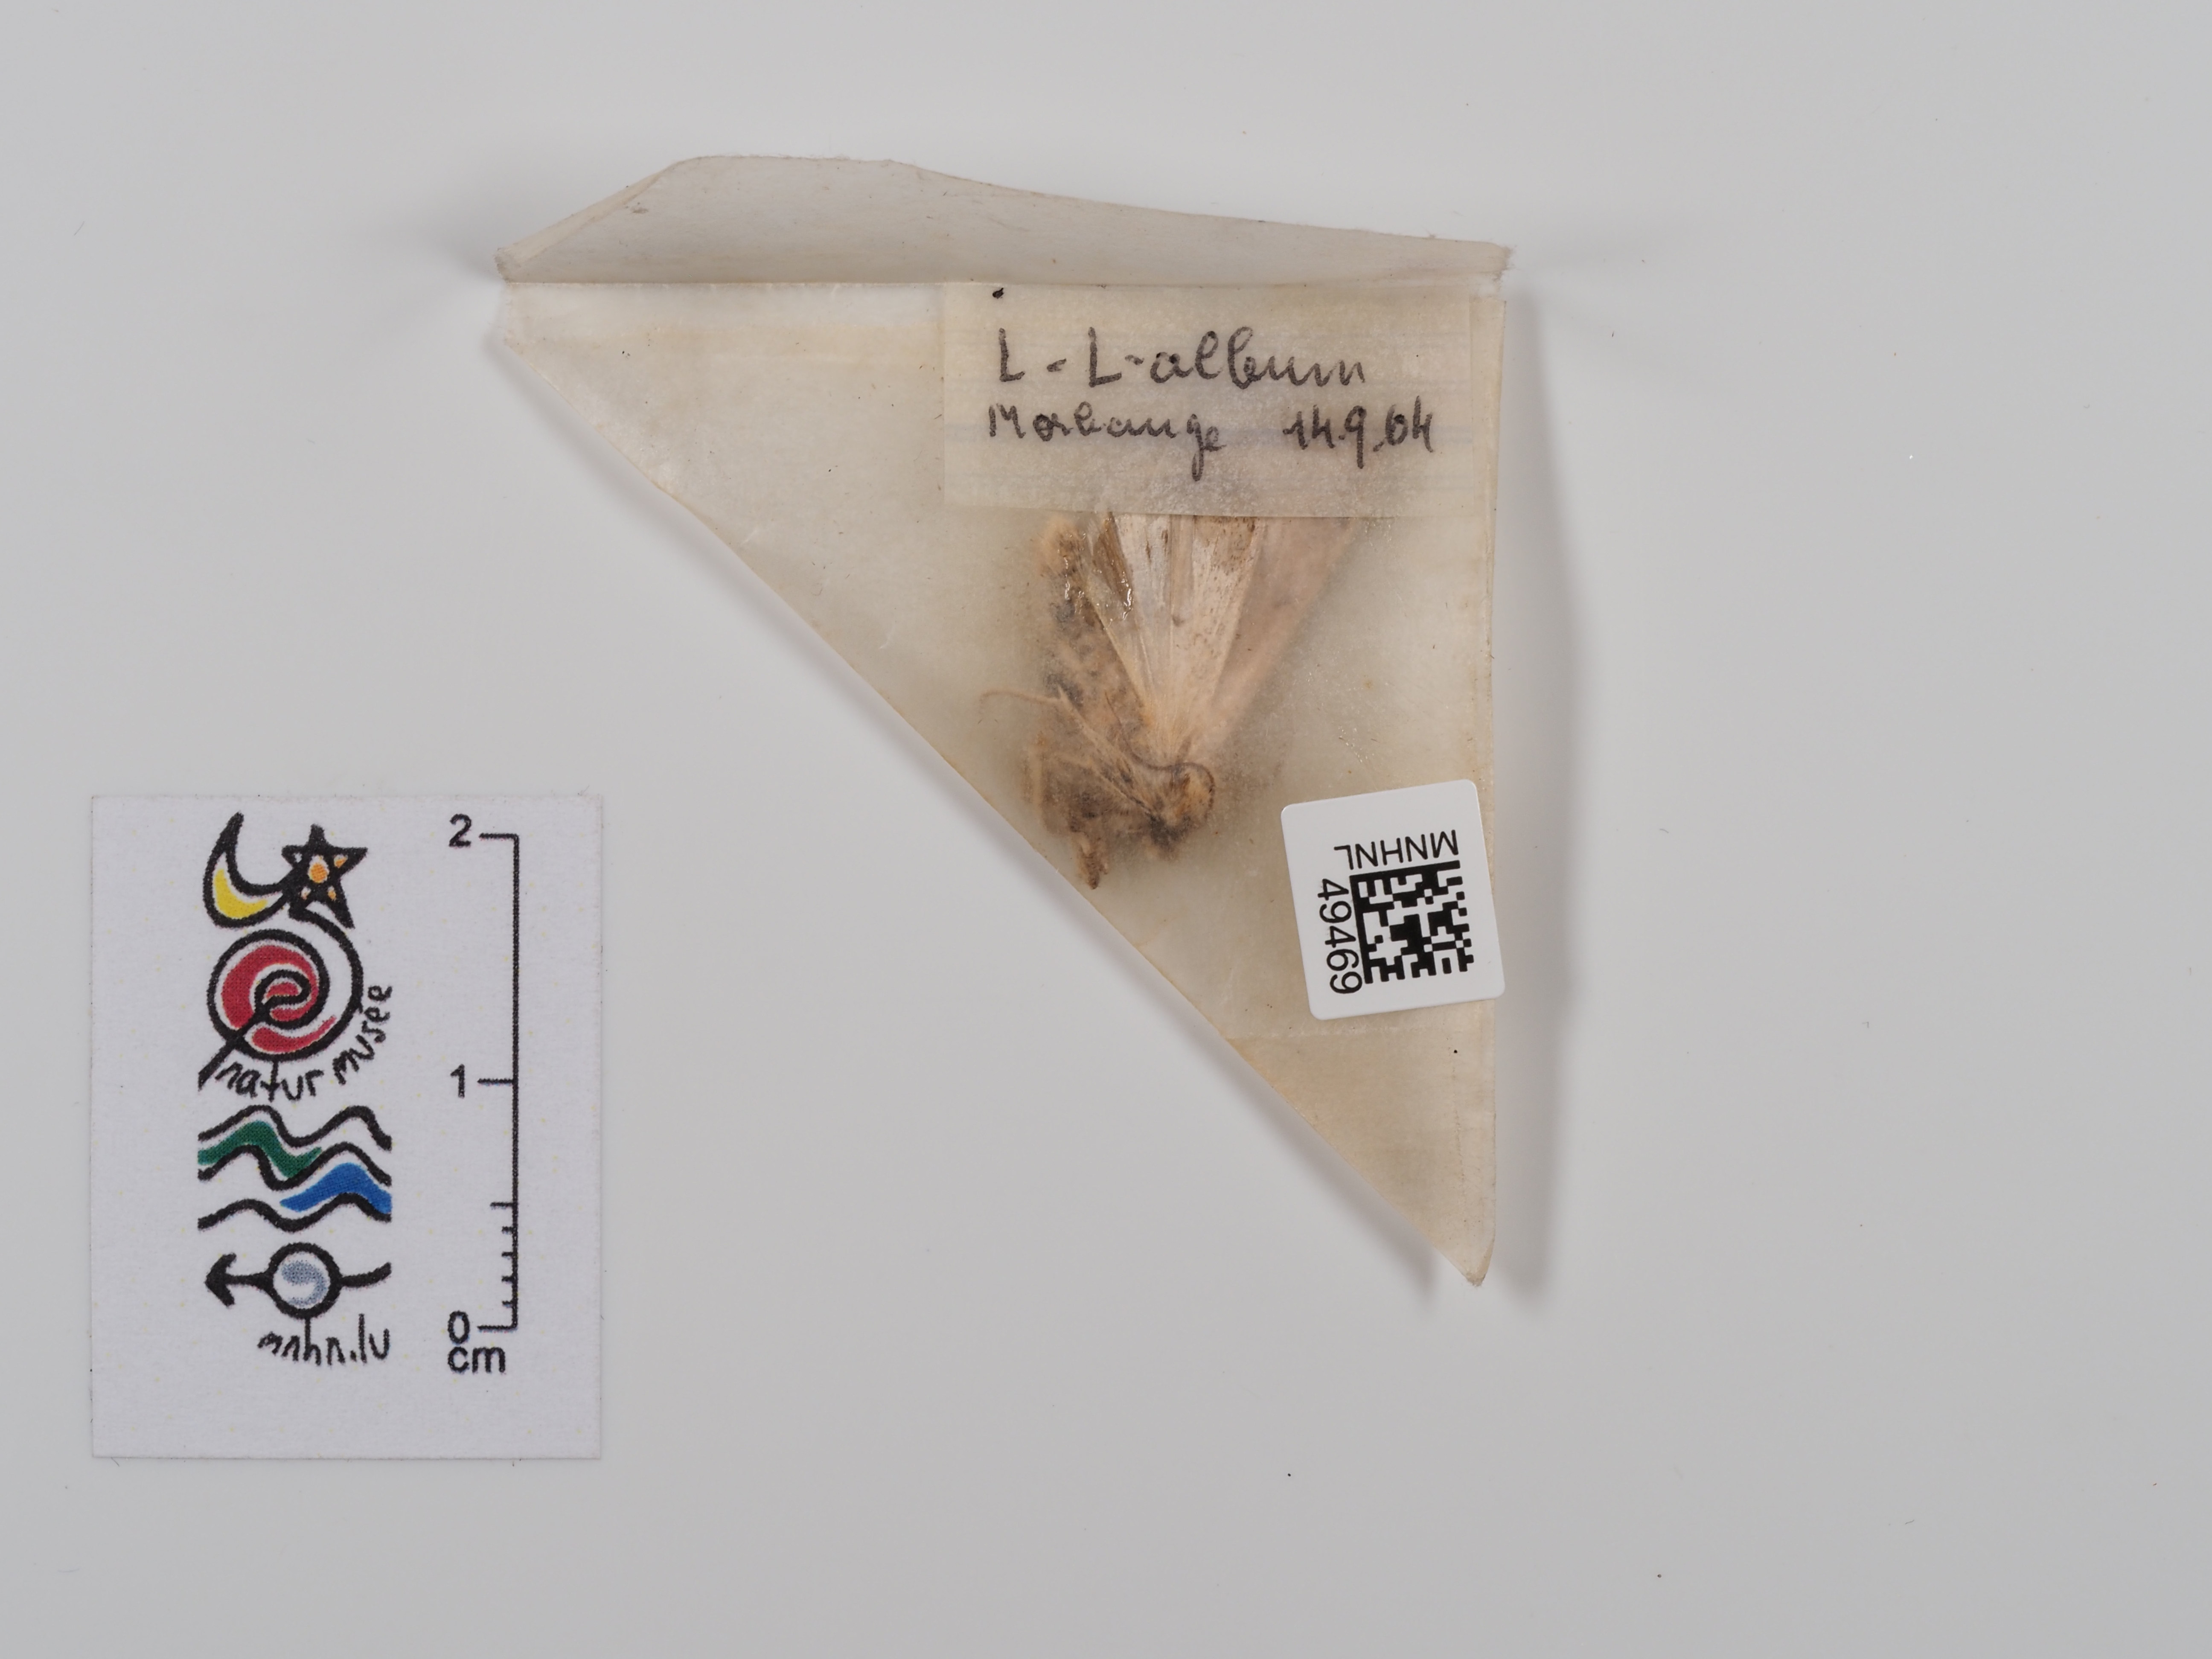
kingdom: Animalia
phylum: Arthropoda
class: Insecta
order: Lepidoptera
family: Noctuidae
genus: Mythimna
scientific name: Mythimna l-album
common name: L-album wainscot
